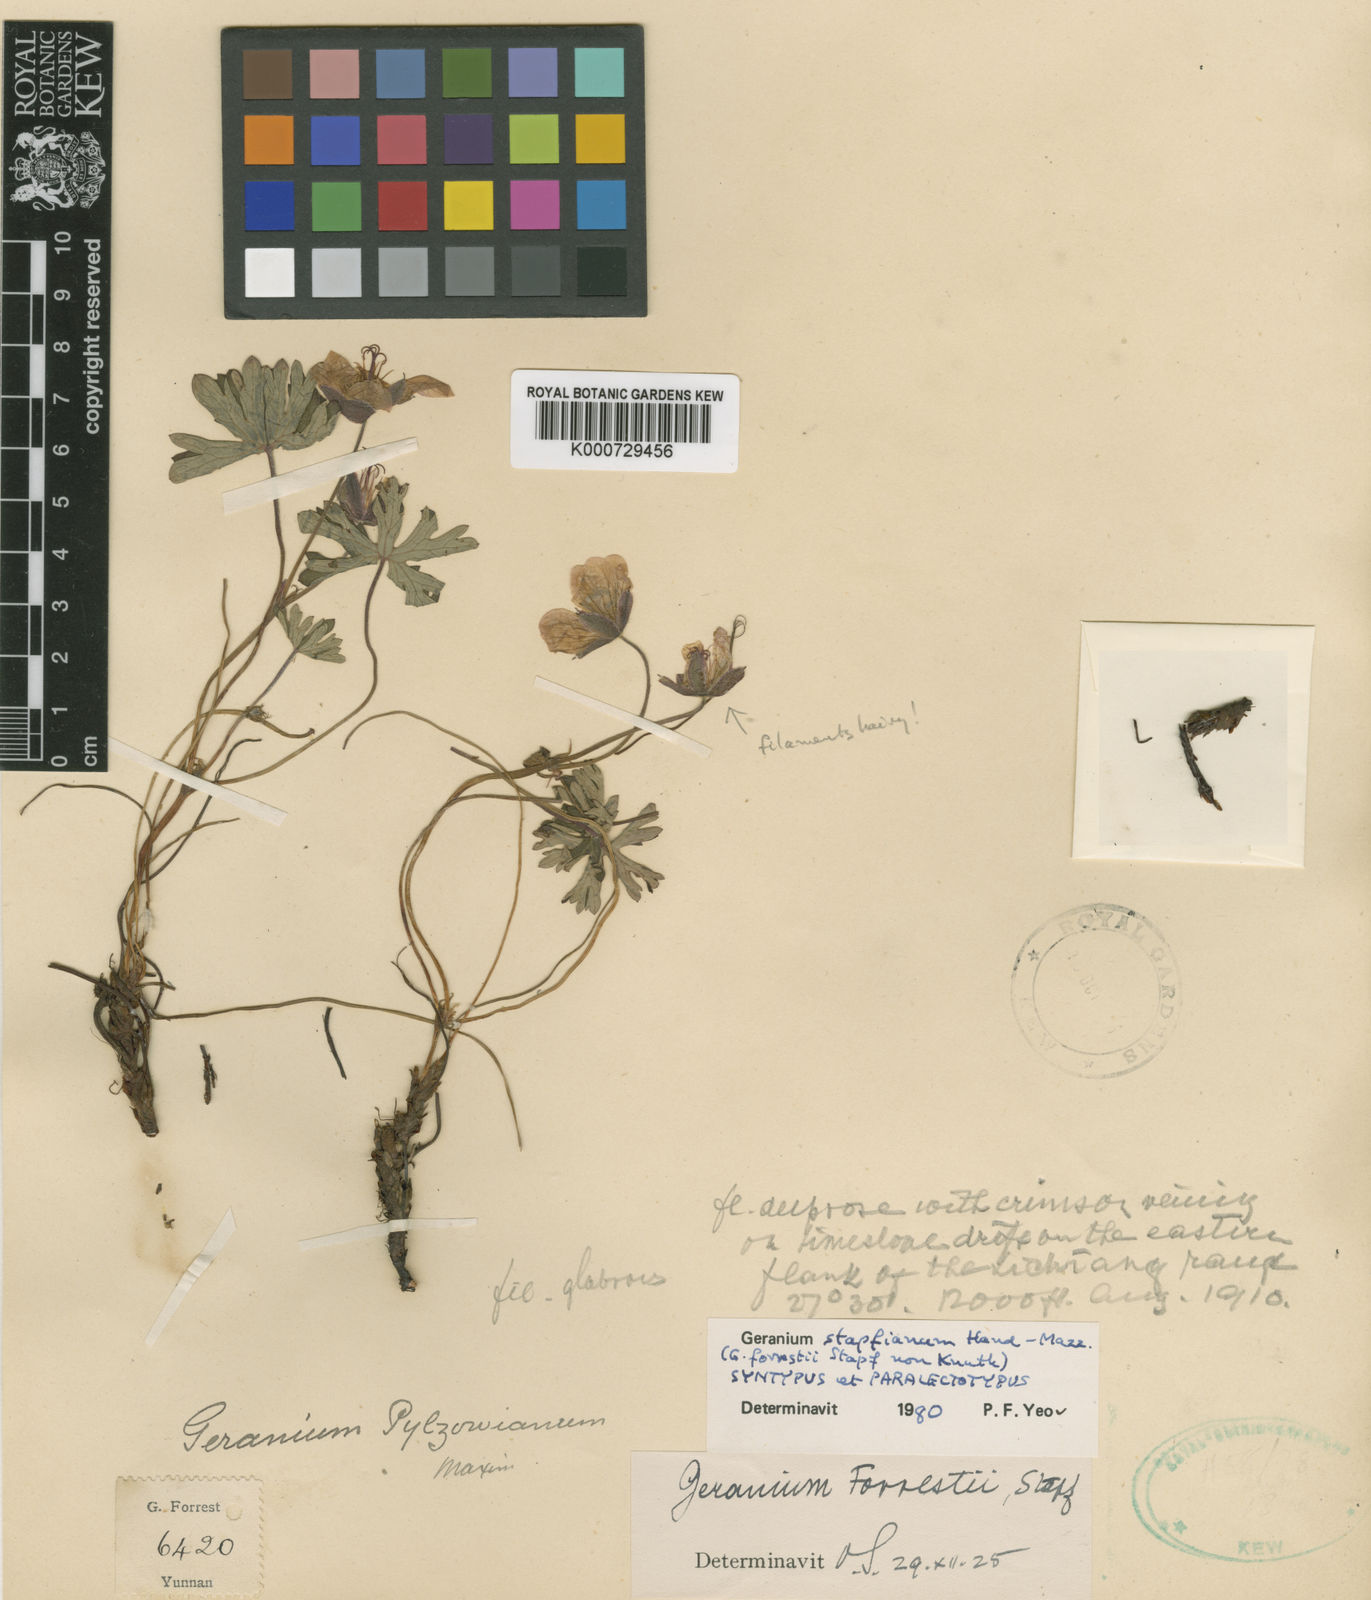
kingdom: Plantae
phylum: Tracheophyta
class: Magnoliopsida
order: Geraniales
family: Geraniaceae
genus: Geranium
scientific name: Geranium donianum
